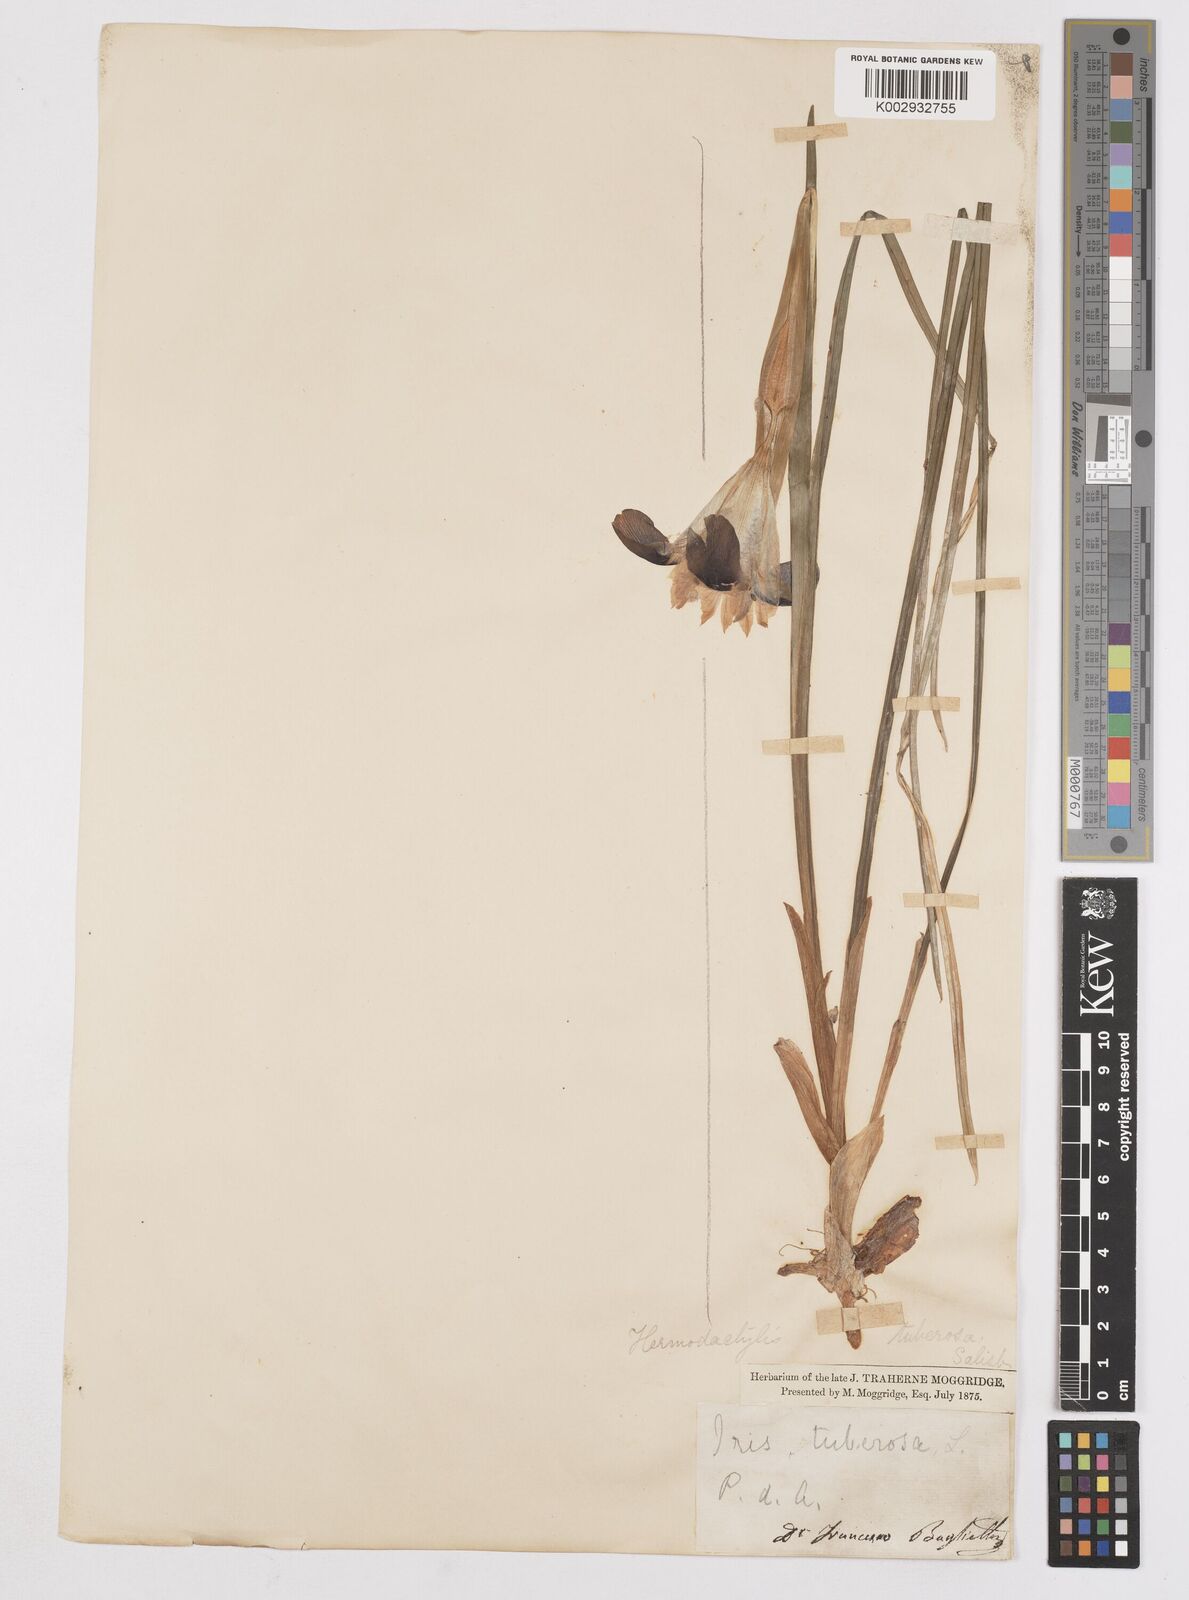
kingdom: Plantae
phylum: Tracheophyta
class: Liliopsida
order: Asparagales
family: Iridaceae
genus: Iris
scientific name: Iris tuberosa
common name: Snake's-head iris
